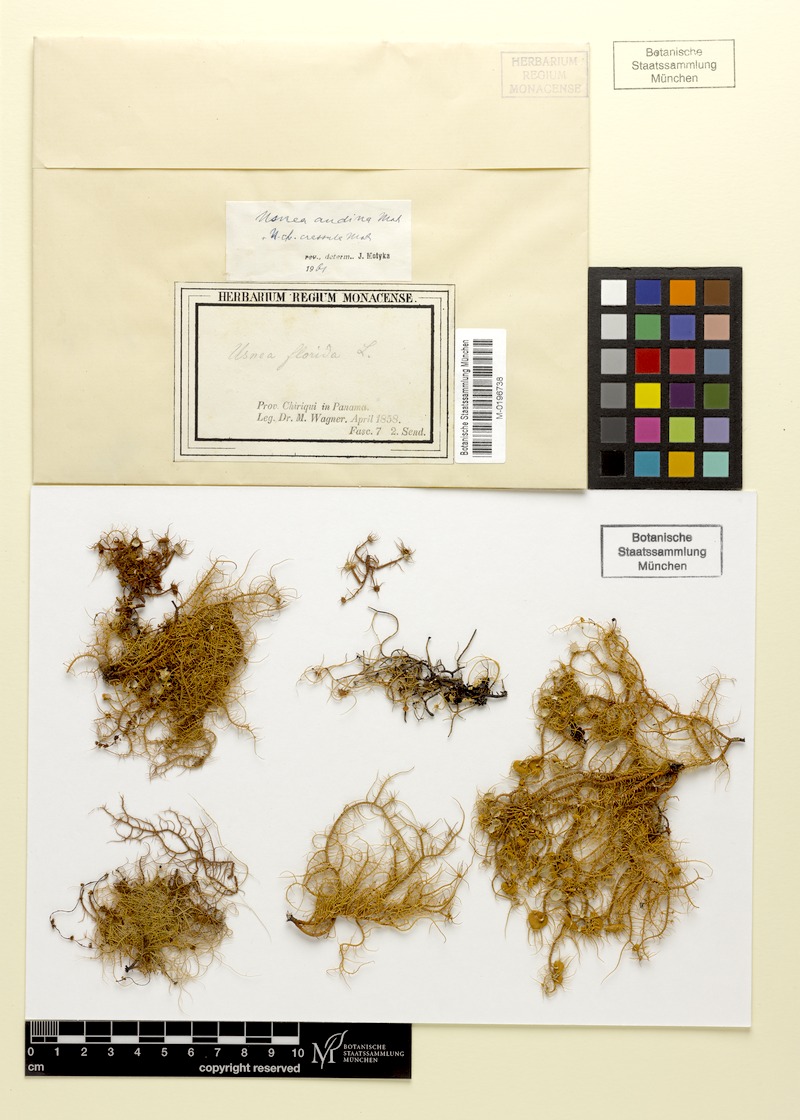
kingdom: Fungi
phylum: Ascomycota
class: Lecanoromycetes
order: Lecanorales
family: Parmeliaceae
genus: Usnea
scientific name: Usnea crassula
